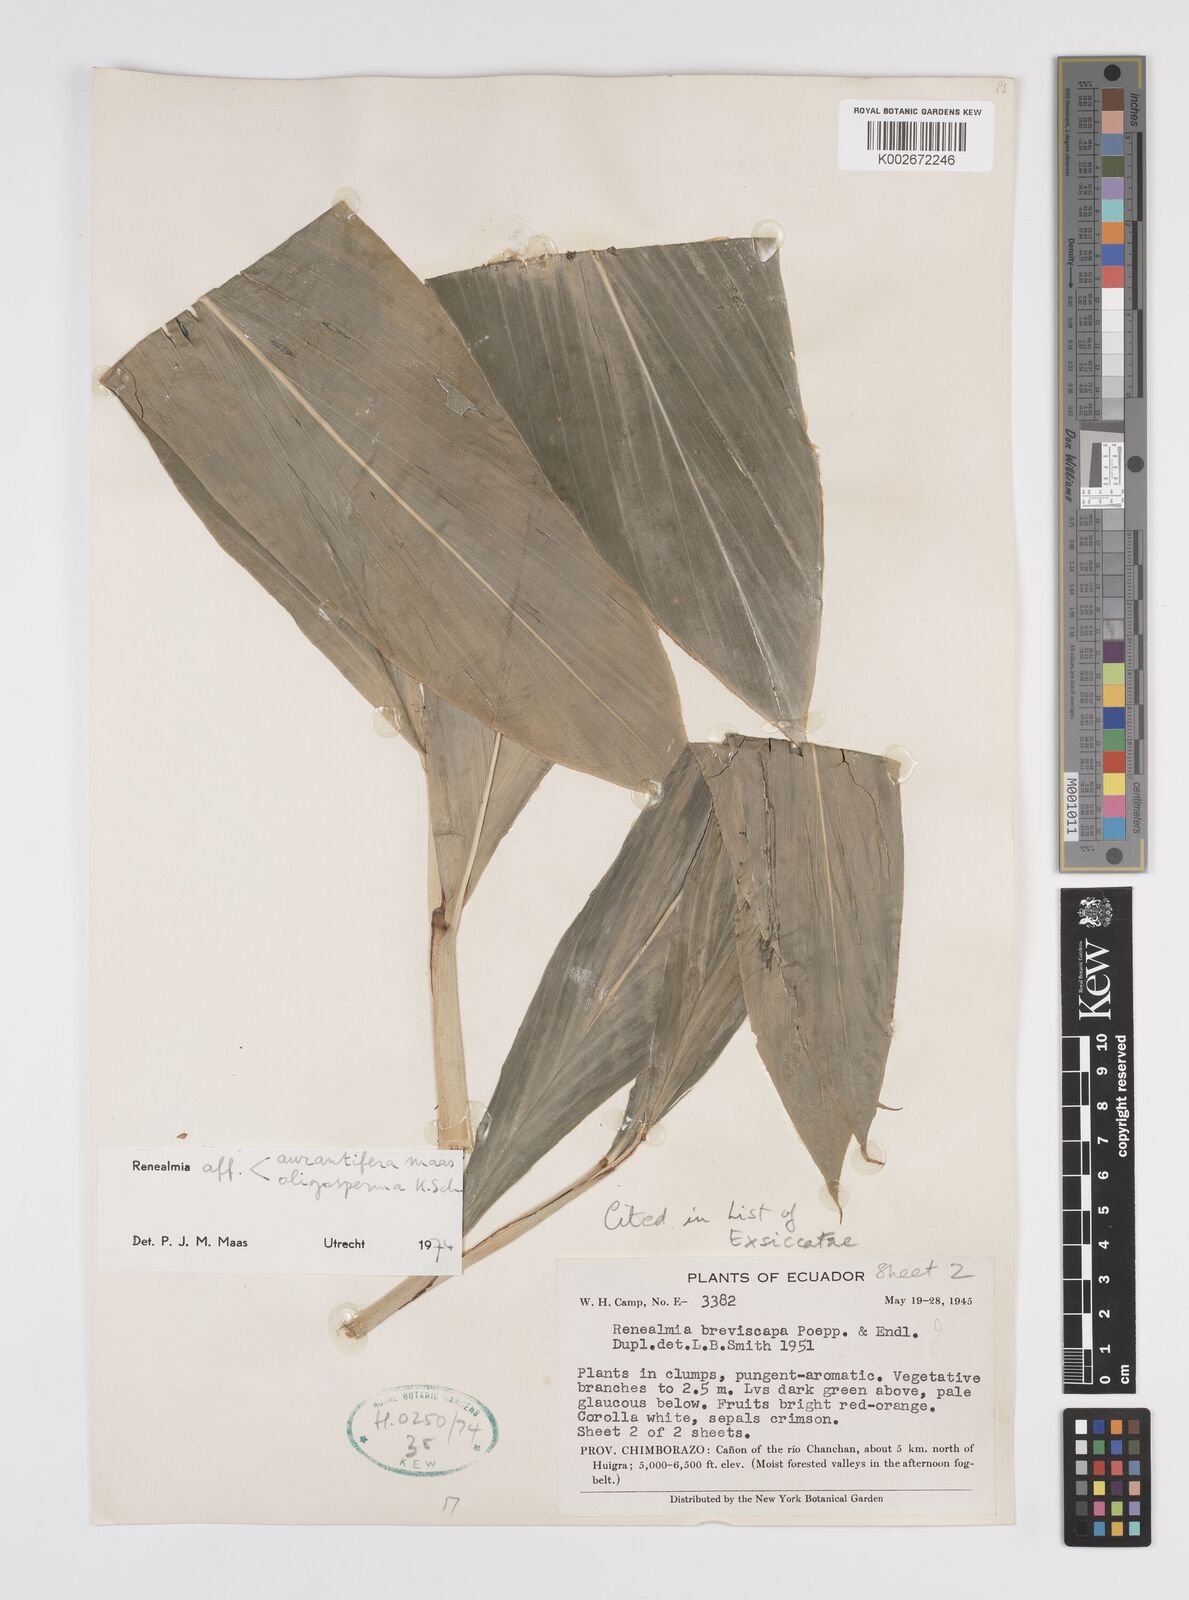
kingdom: Plantae
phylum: Tracheophyta
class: Liliopsida
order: Zingiberales
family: Zingiberaceae
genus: Renealmia
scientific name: Renealmia aurantiifera
